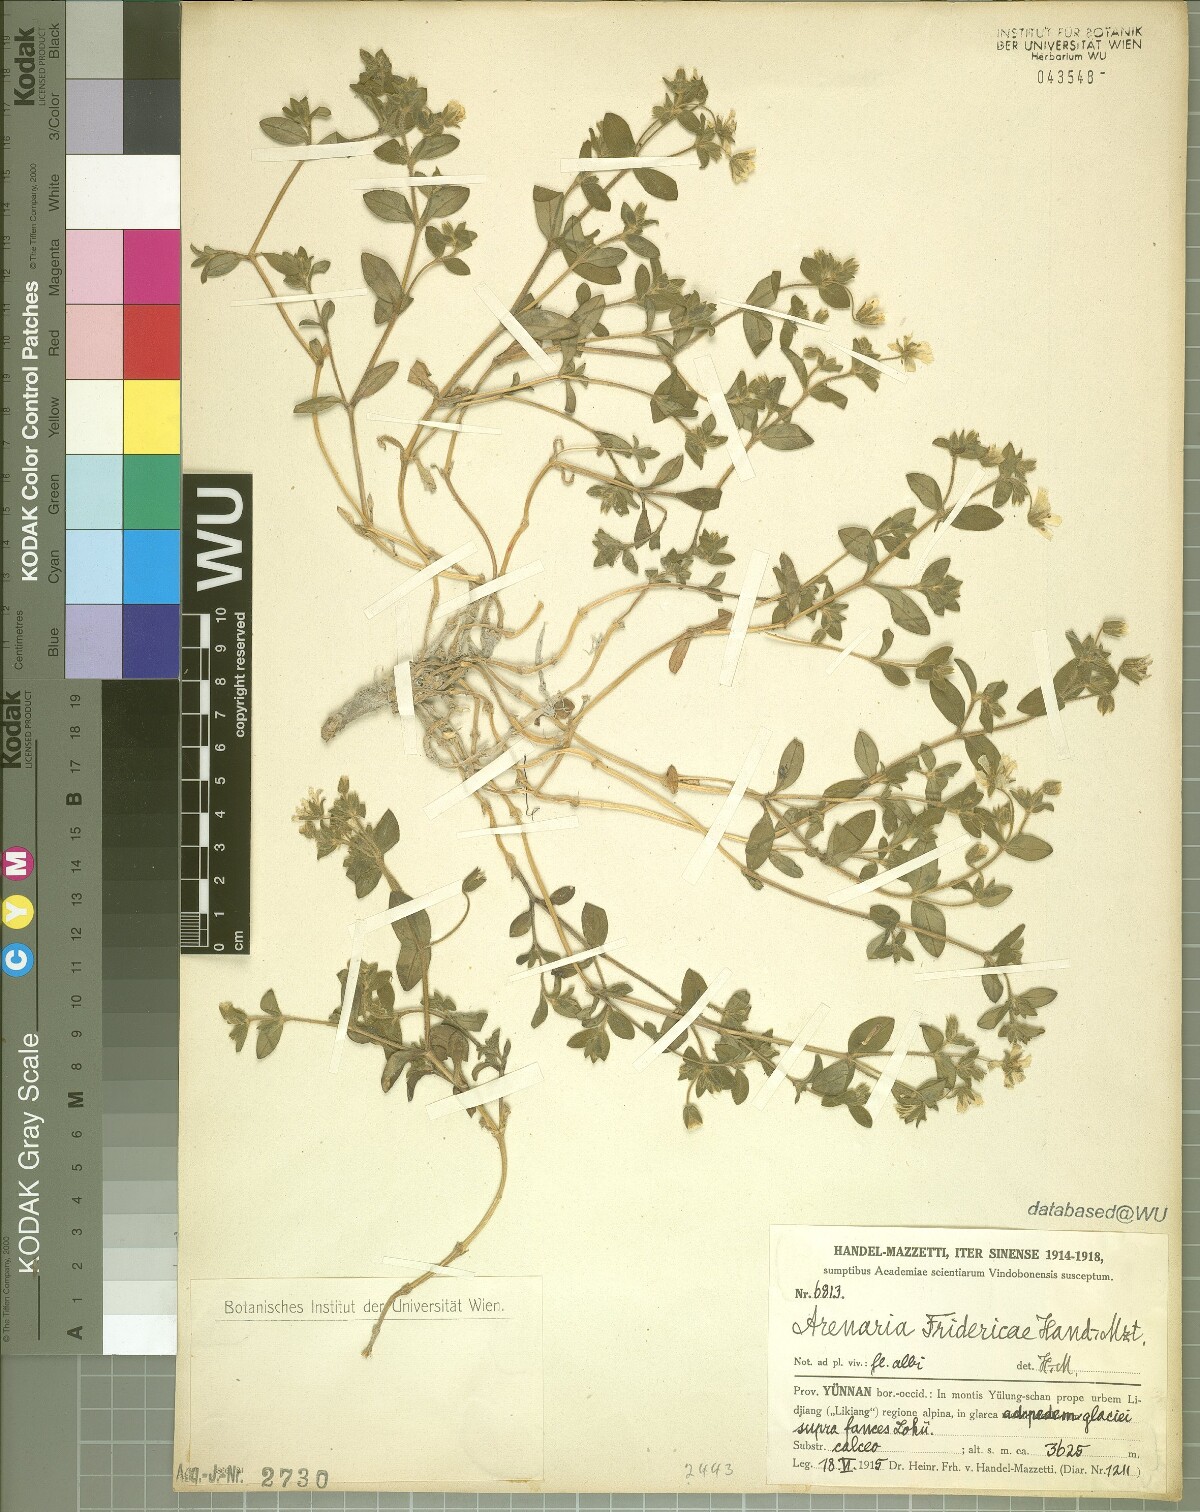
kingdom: Plantae
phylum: Tracheophyta
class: Magnoliopsida
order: Caryophyllales
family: Caryophyllaceae
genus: Odontostemma
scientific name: Odontostemma fridericae
